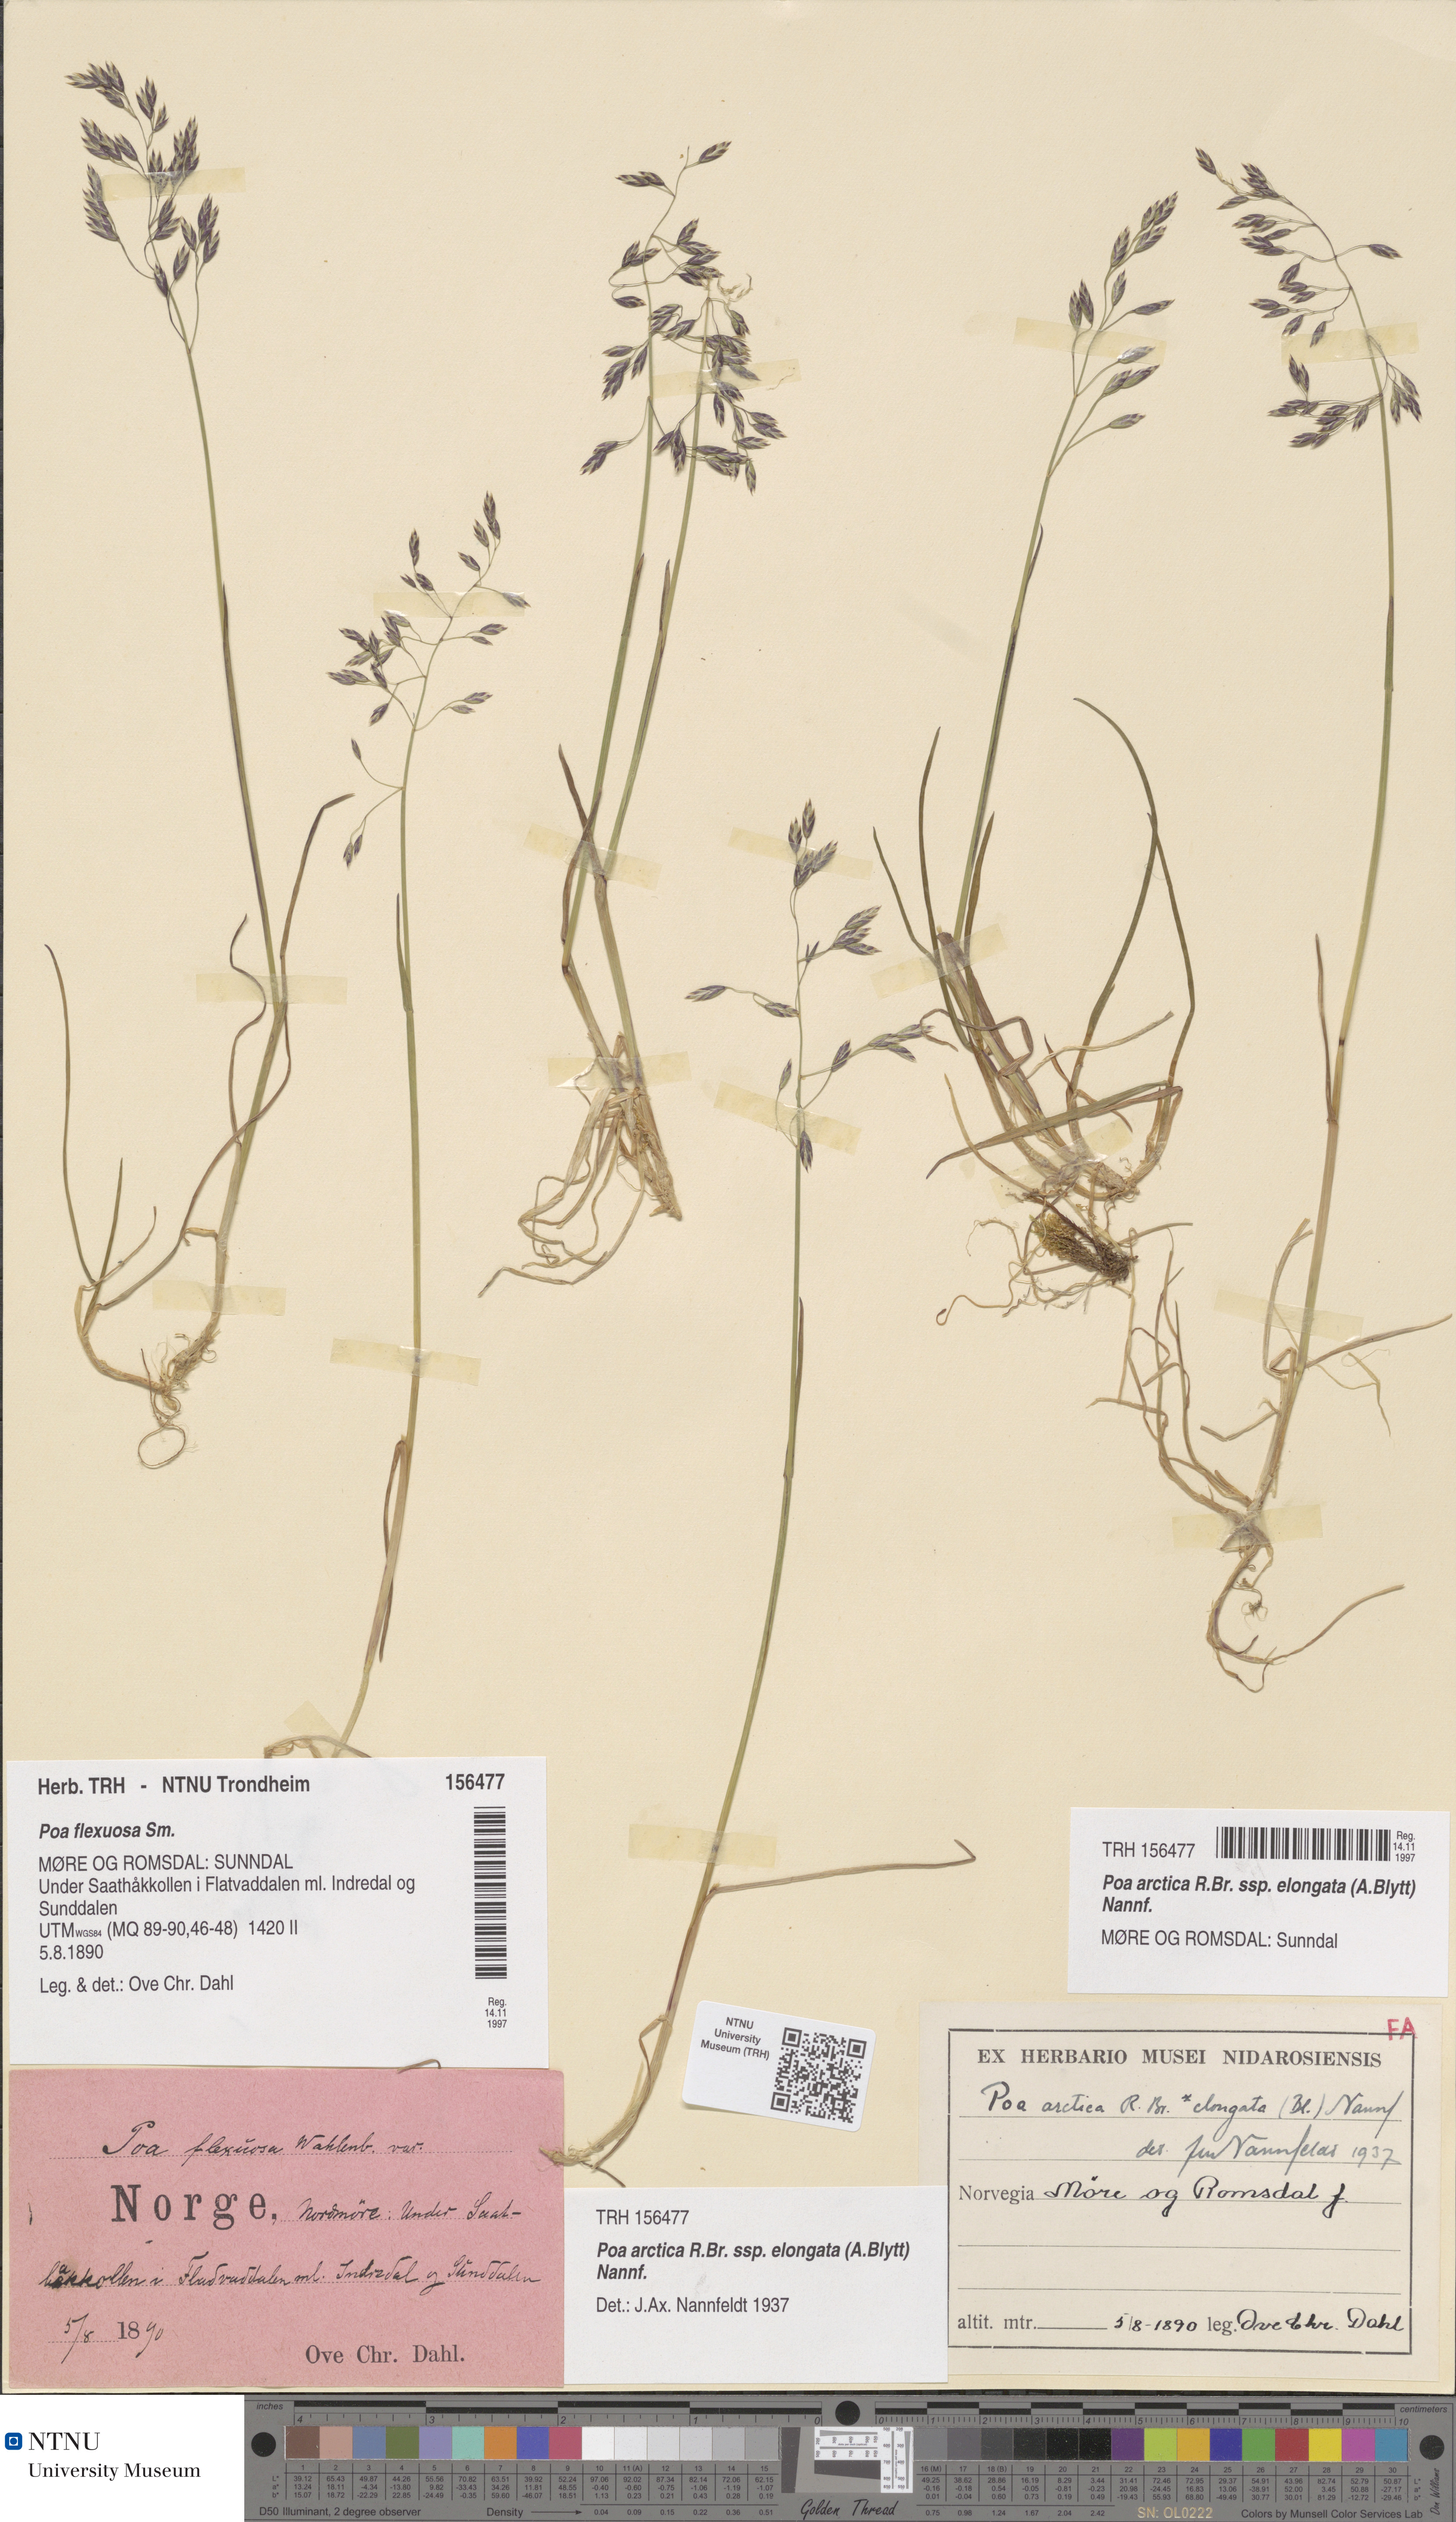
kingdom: Plantae
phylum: Tracheophyta
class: Liliopsida
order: Poales
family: Poaceae
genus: Poa
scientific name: Poa arctica
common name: Arctic bluegrass
